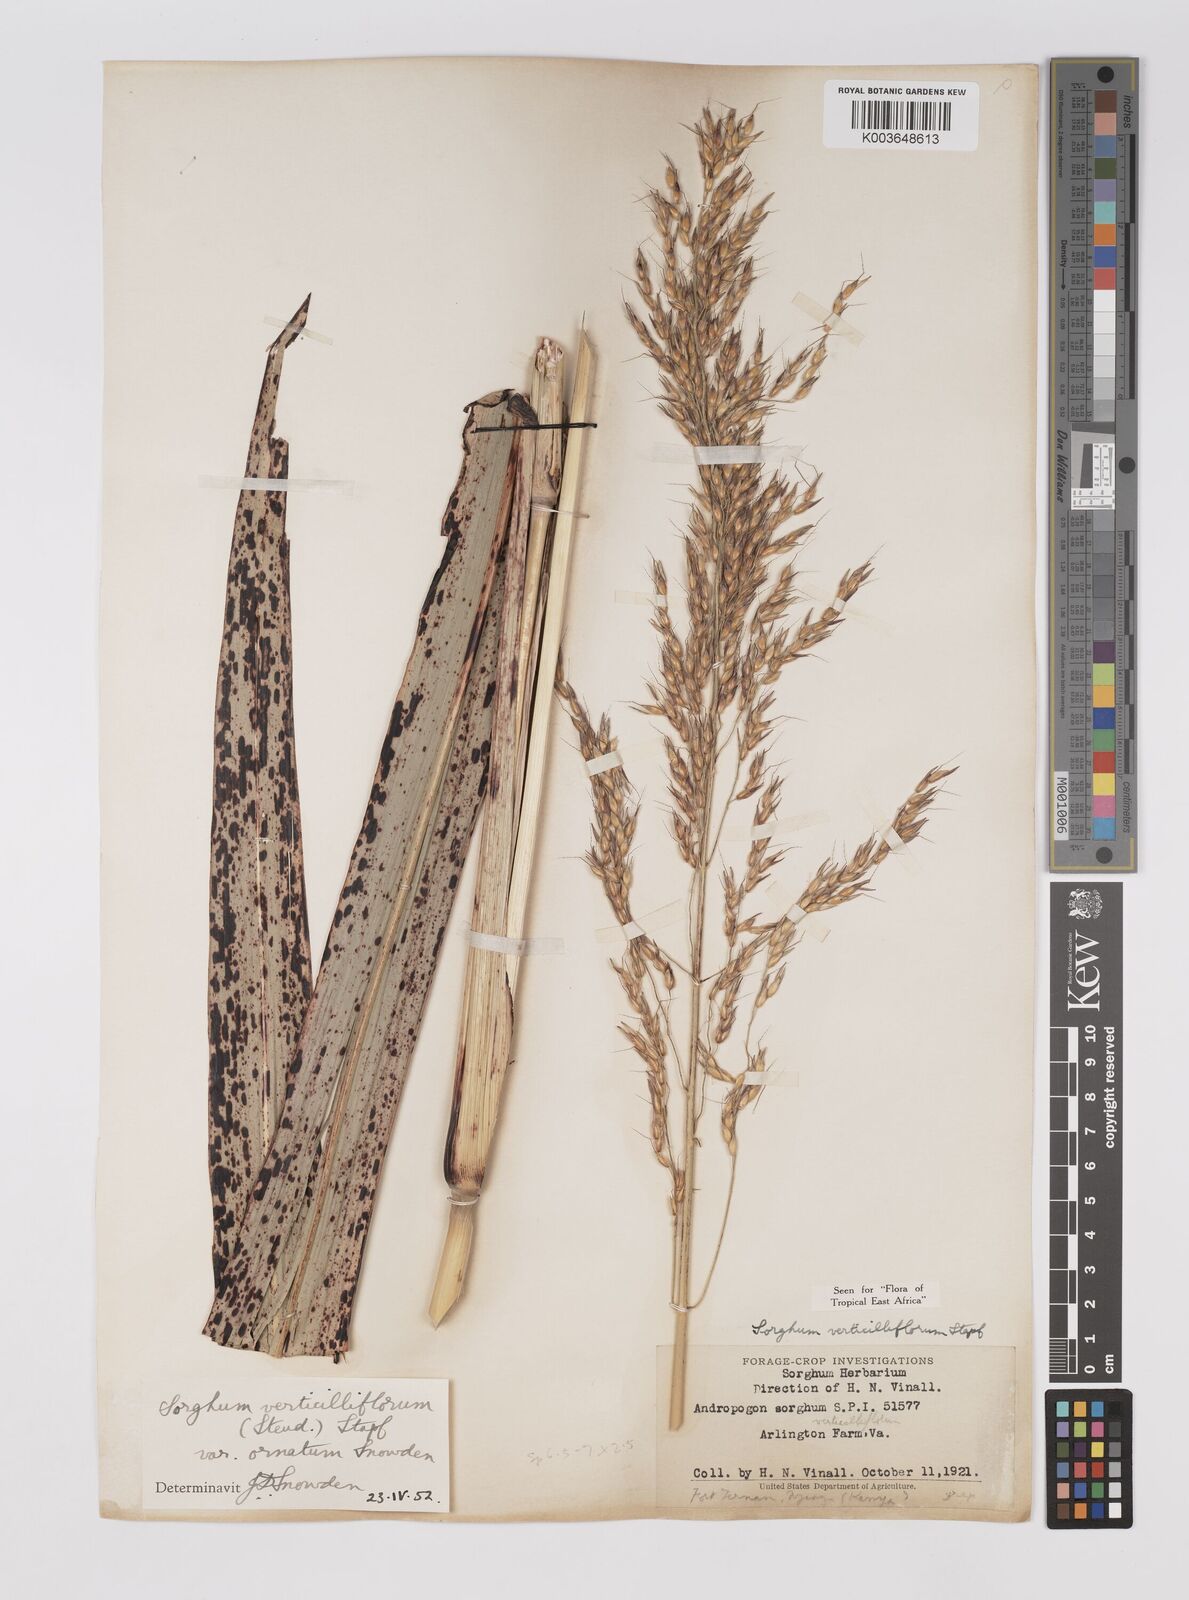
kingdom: Plantae
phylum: Tracheophyta
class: Liliopsida
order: Poales
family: Poaceae
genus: Sorghum
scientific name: Sorghum arundinaceum
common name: Sorghum
